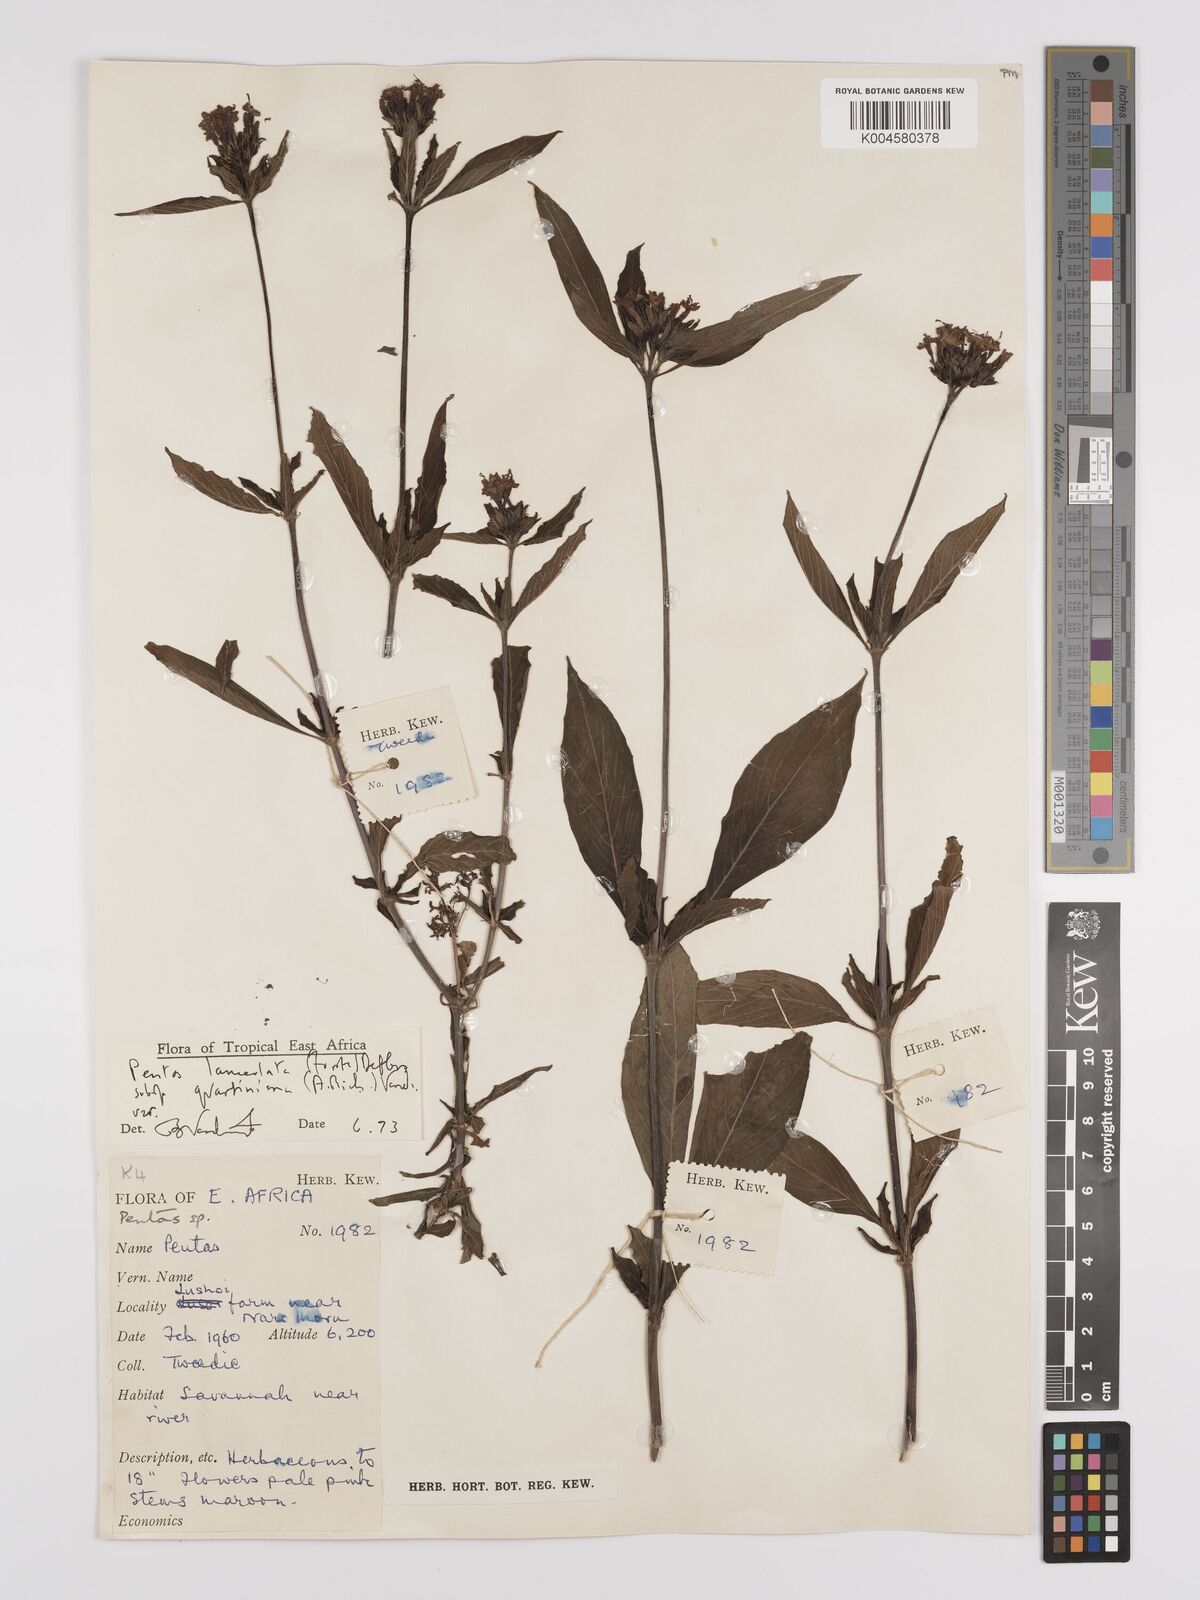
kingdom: Plantae
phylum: Tracheophyta
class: Magnoliopsida
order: Gentianales
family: Rubiaceae
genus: Pentas
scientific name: Pentas lanceolata
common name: Egyptian starcluster
